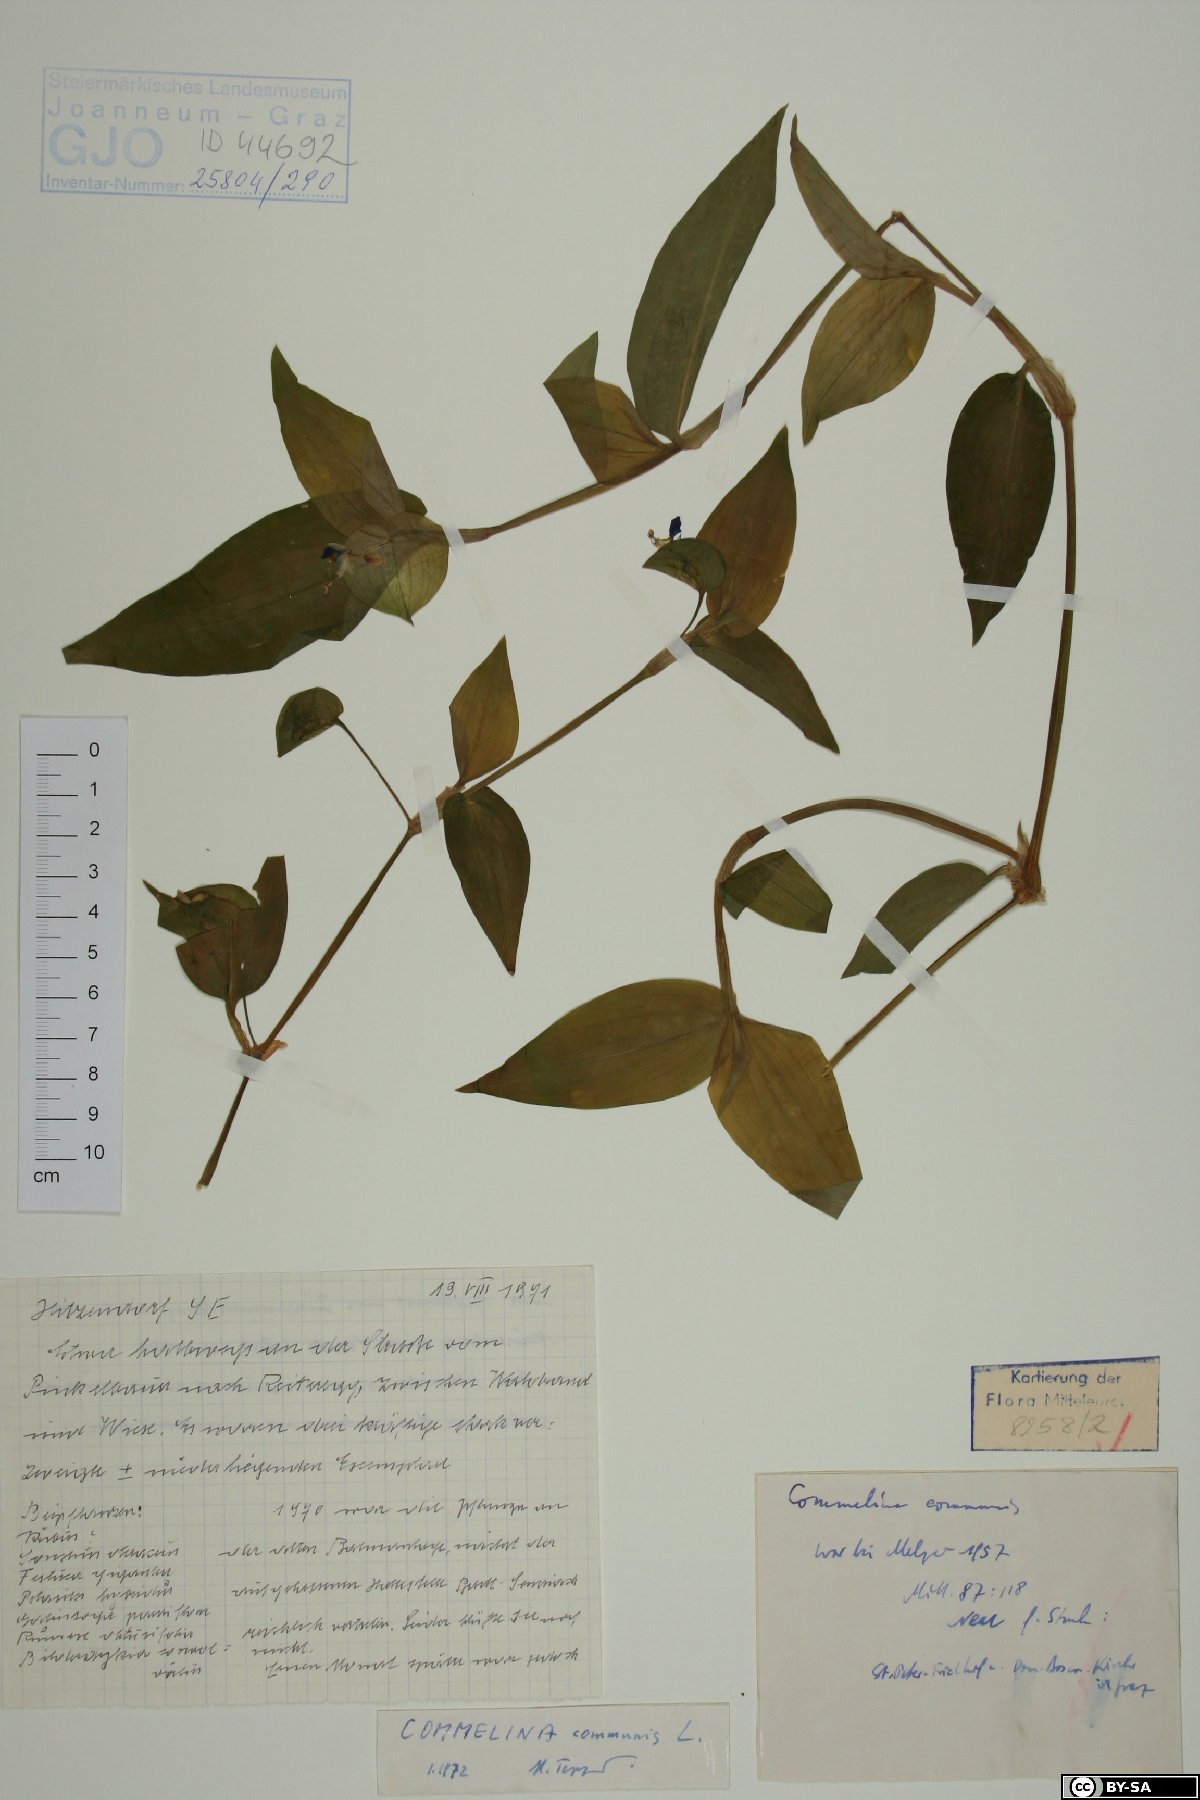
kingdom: Plantae
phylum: Tracheophyta
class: Liliopsida
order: Commelinales
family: Commelinaceae
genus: Commelina
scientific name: Commelina communis
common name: Asiatic dayflower
